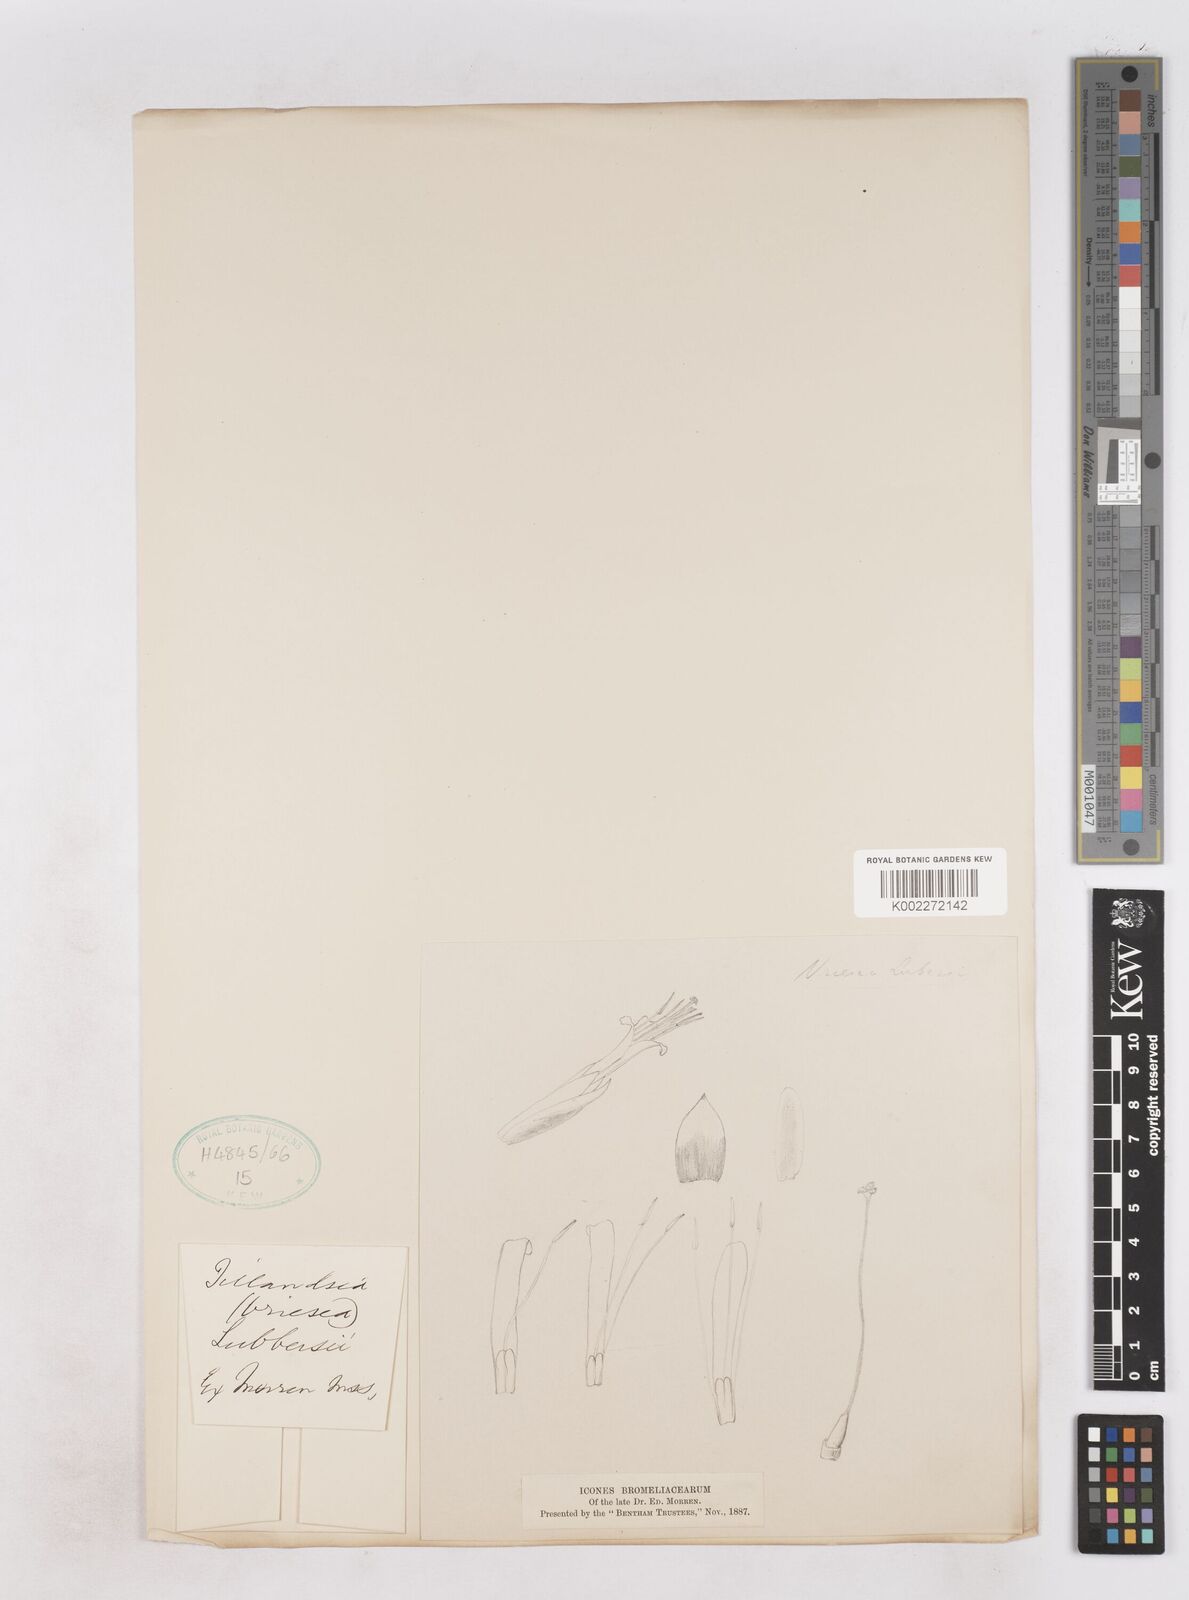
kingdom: Plantae
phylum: Tracheophyta
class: Liliopsida
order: Poales
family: Bromeliaceae
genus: Vriesea
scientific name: Vriesea lubbersii
